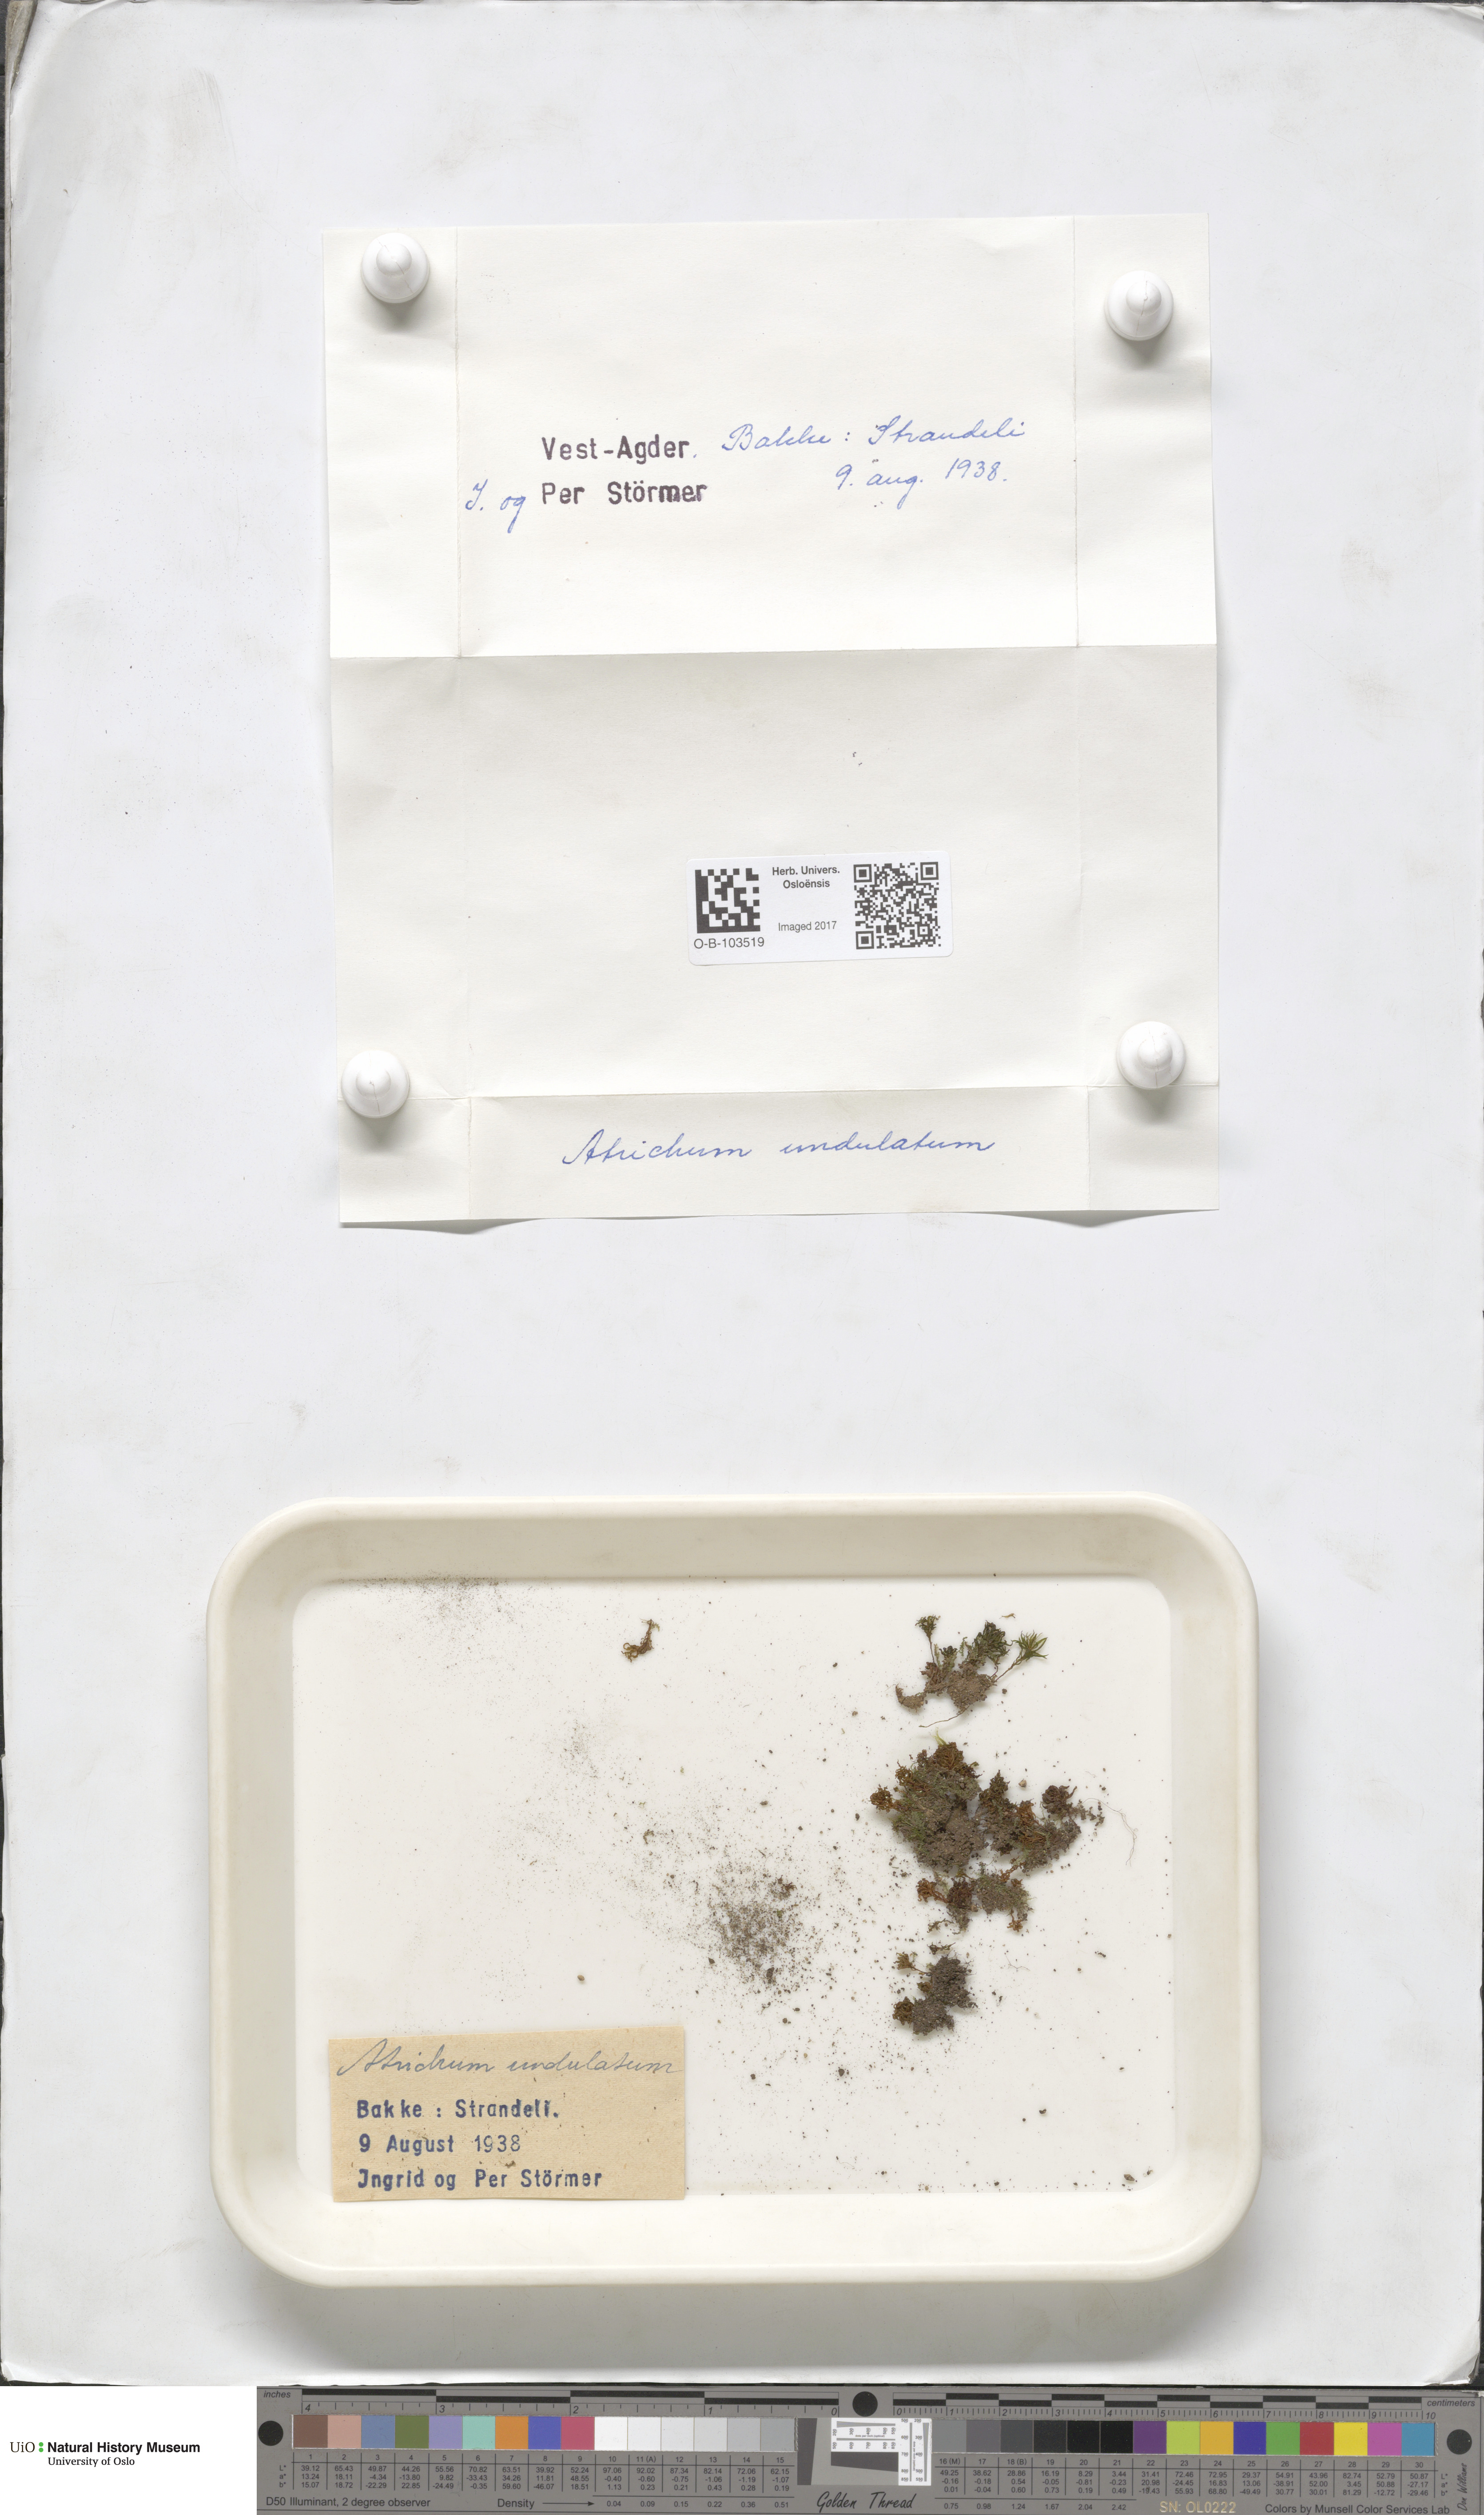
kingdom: Plantae
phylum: Bryophyta
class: Polytrichopsida
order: Polytrichales
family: Polytrichaceae
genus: Atrichum
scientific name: Atrichum undulatum
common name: Common smoothcap
